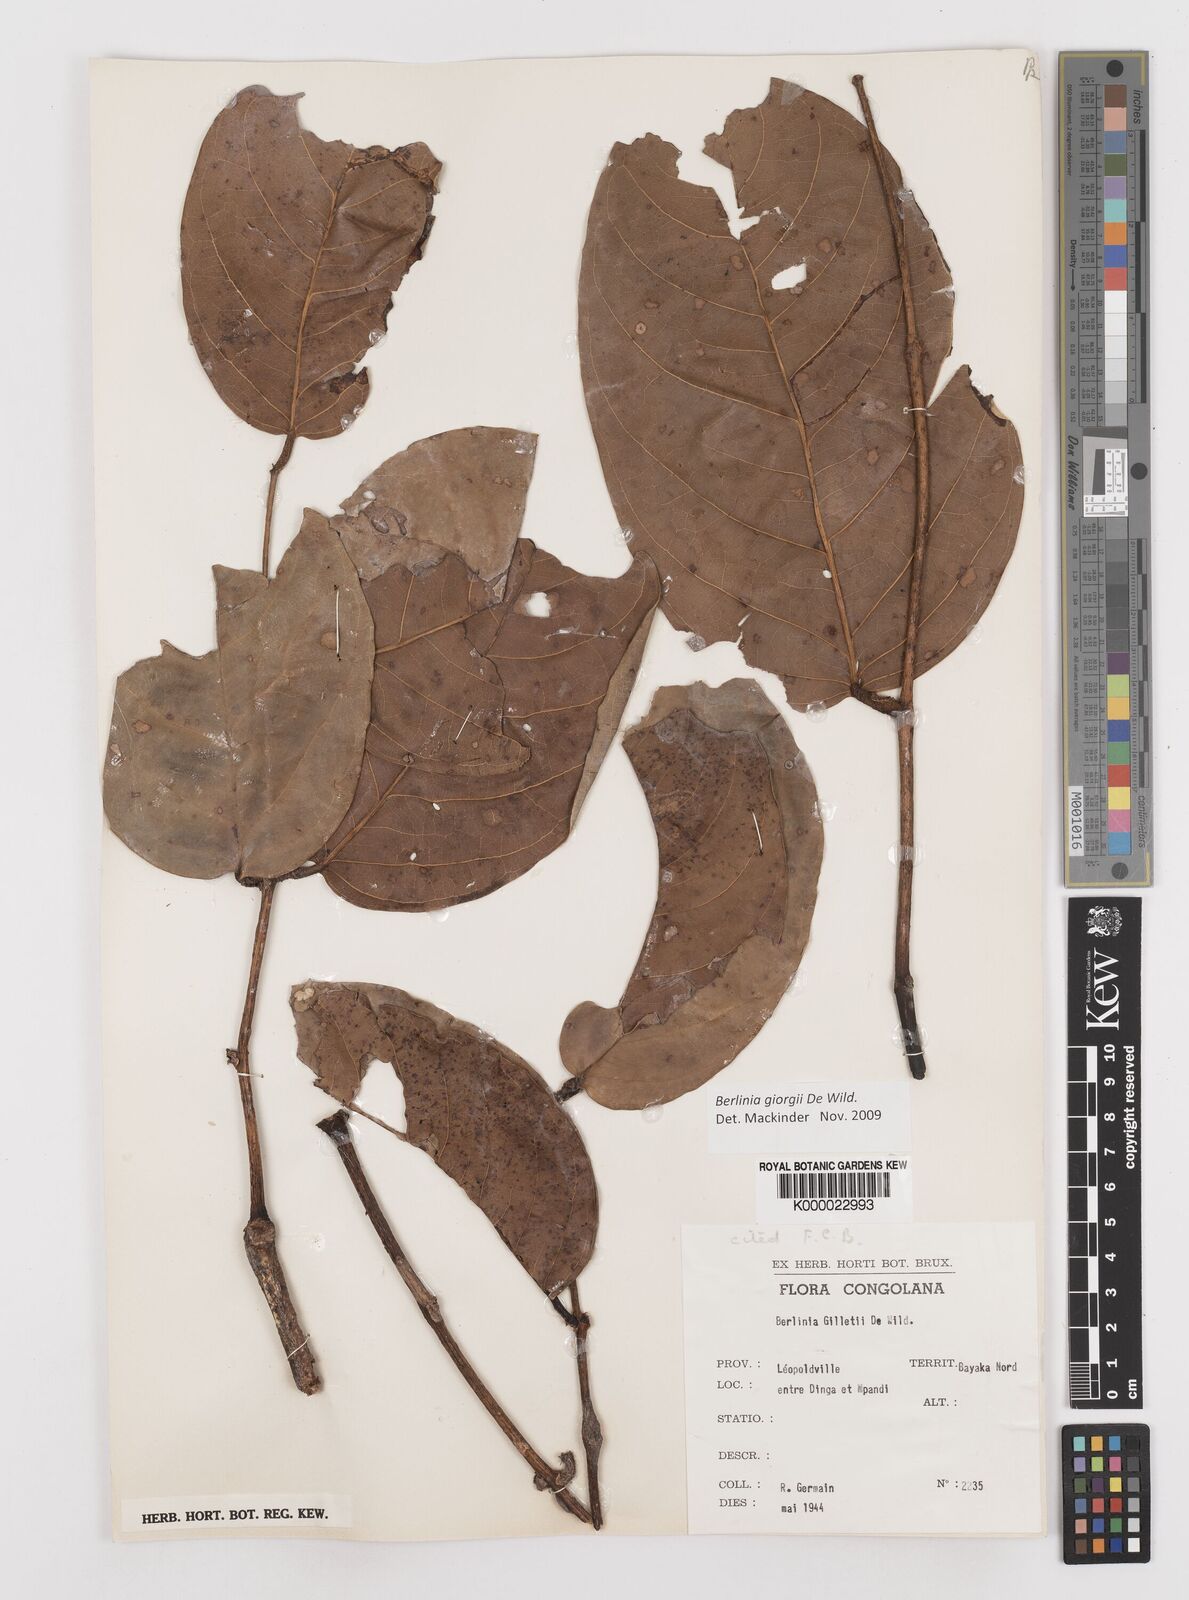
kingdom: Plantae
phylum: Tracheophyta
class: Magnoliopsida
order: Fabales
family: Fabaceae
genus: Berlinia
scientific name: Berlinia giorgii
